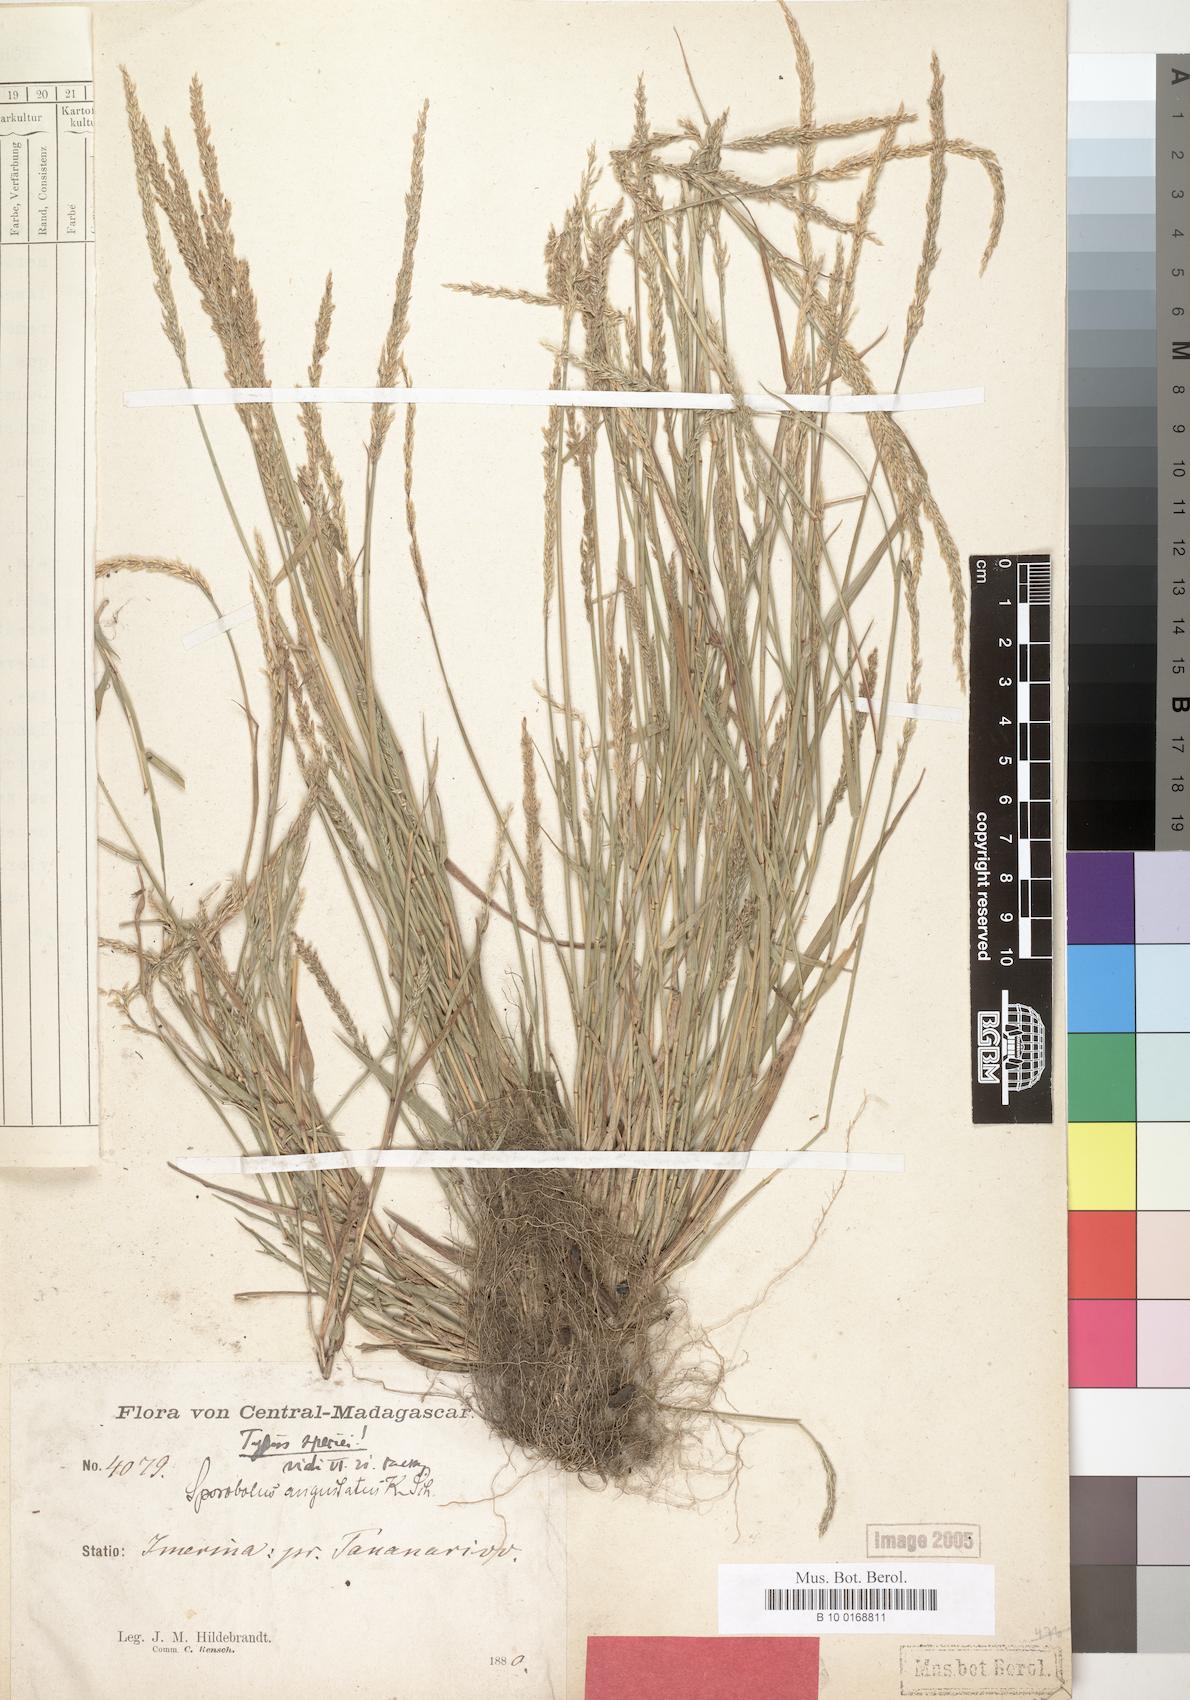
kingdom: Plantae
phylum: Tracheophyta
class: Liliopsida
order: Poales
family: Poaceae
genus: Sporobolus
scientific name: Sporobolus indicus
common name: Smut grass
